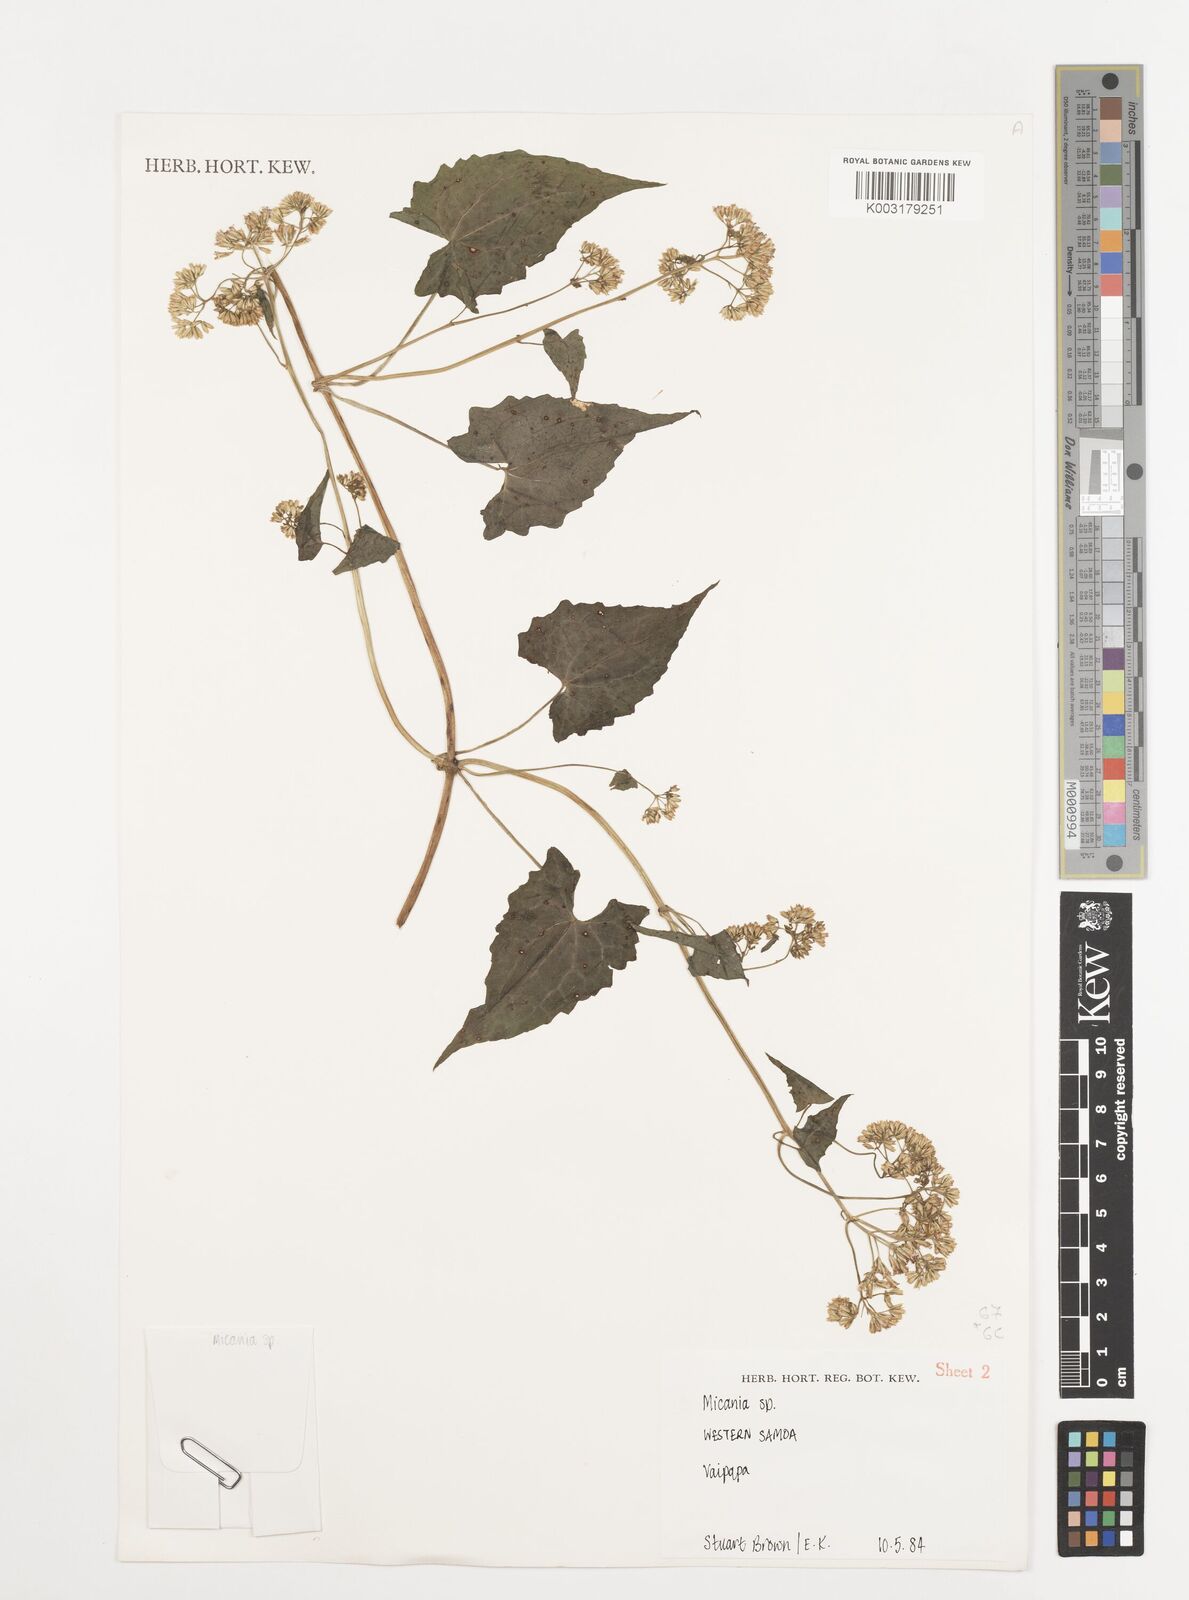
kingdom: Plantae
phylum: Tracheophyta
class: Magnoliopsida
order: Asterales
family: Asteraceae
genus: Mikania
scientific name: Mikania micrantha
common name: Mile-a-minute
